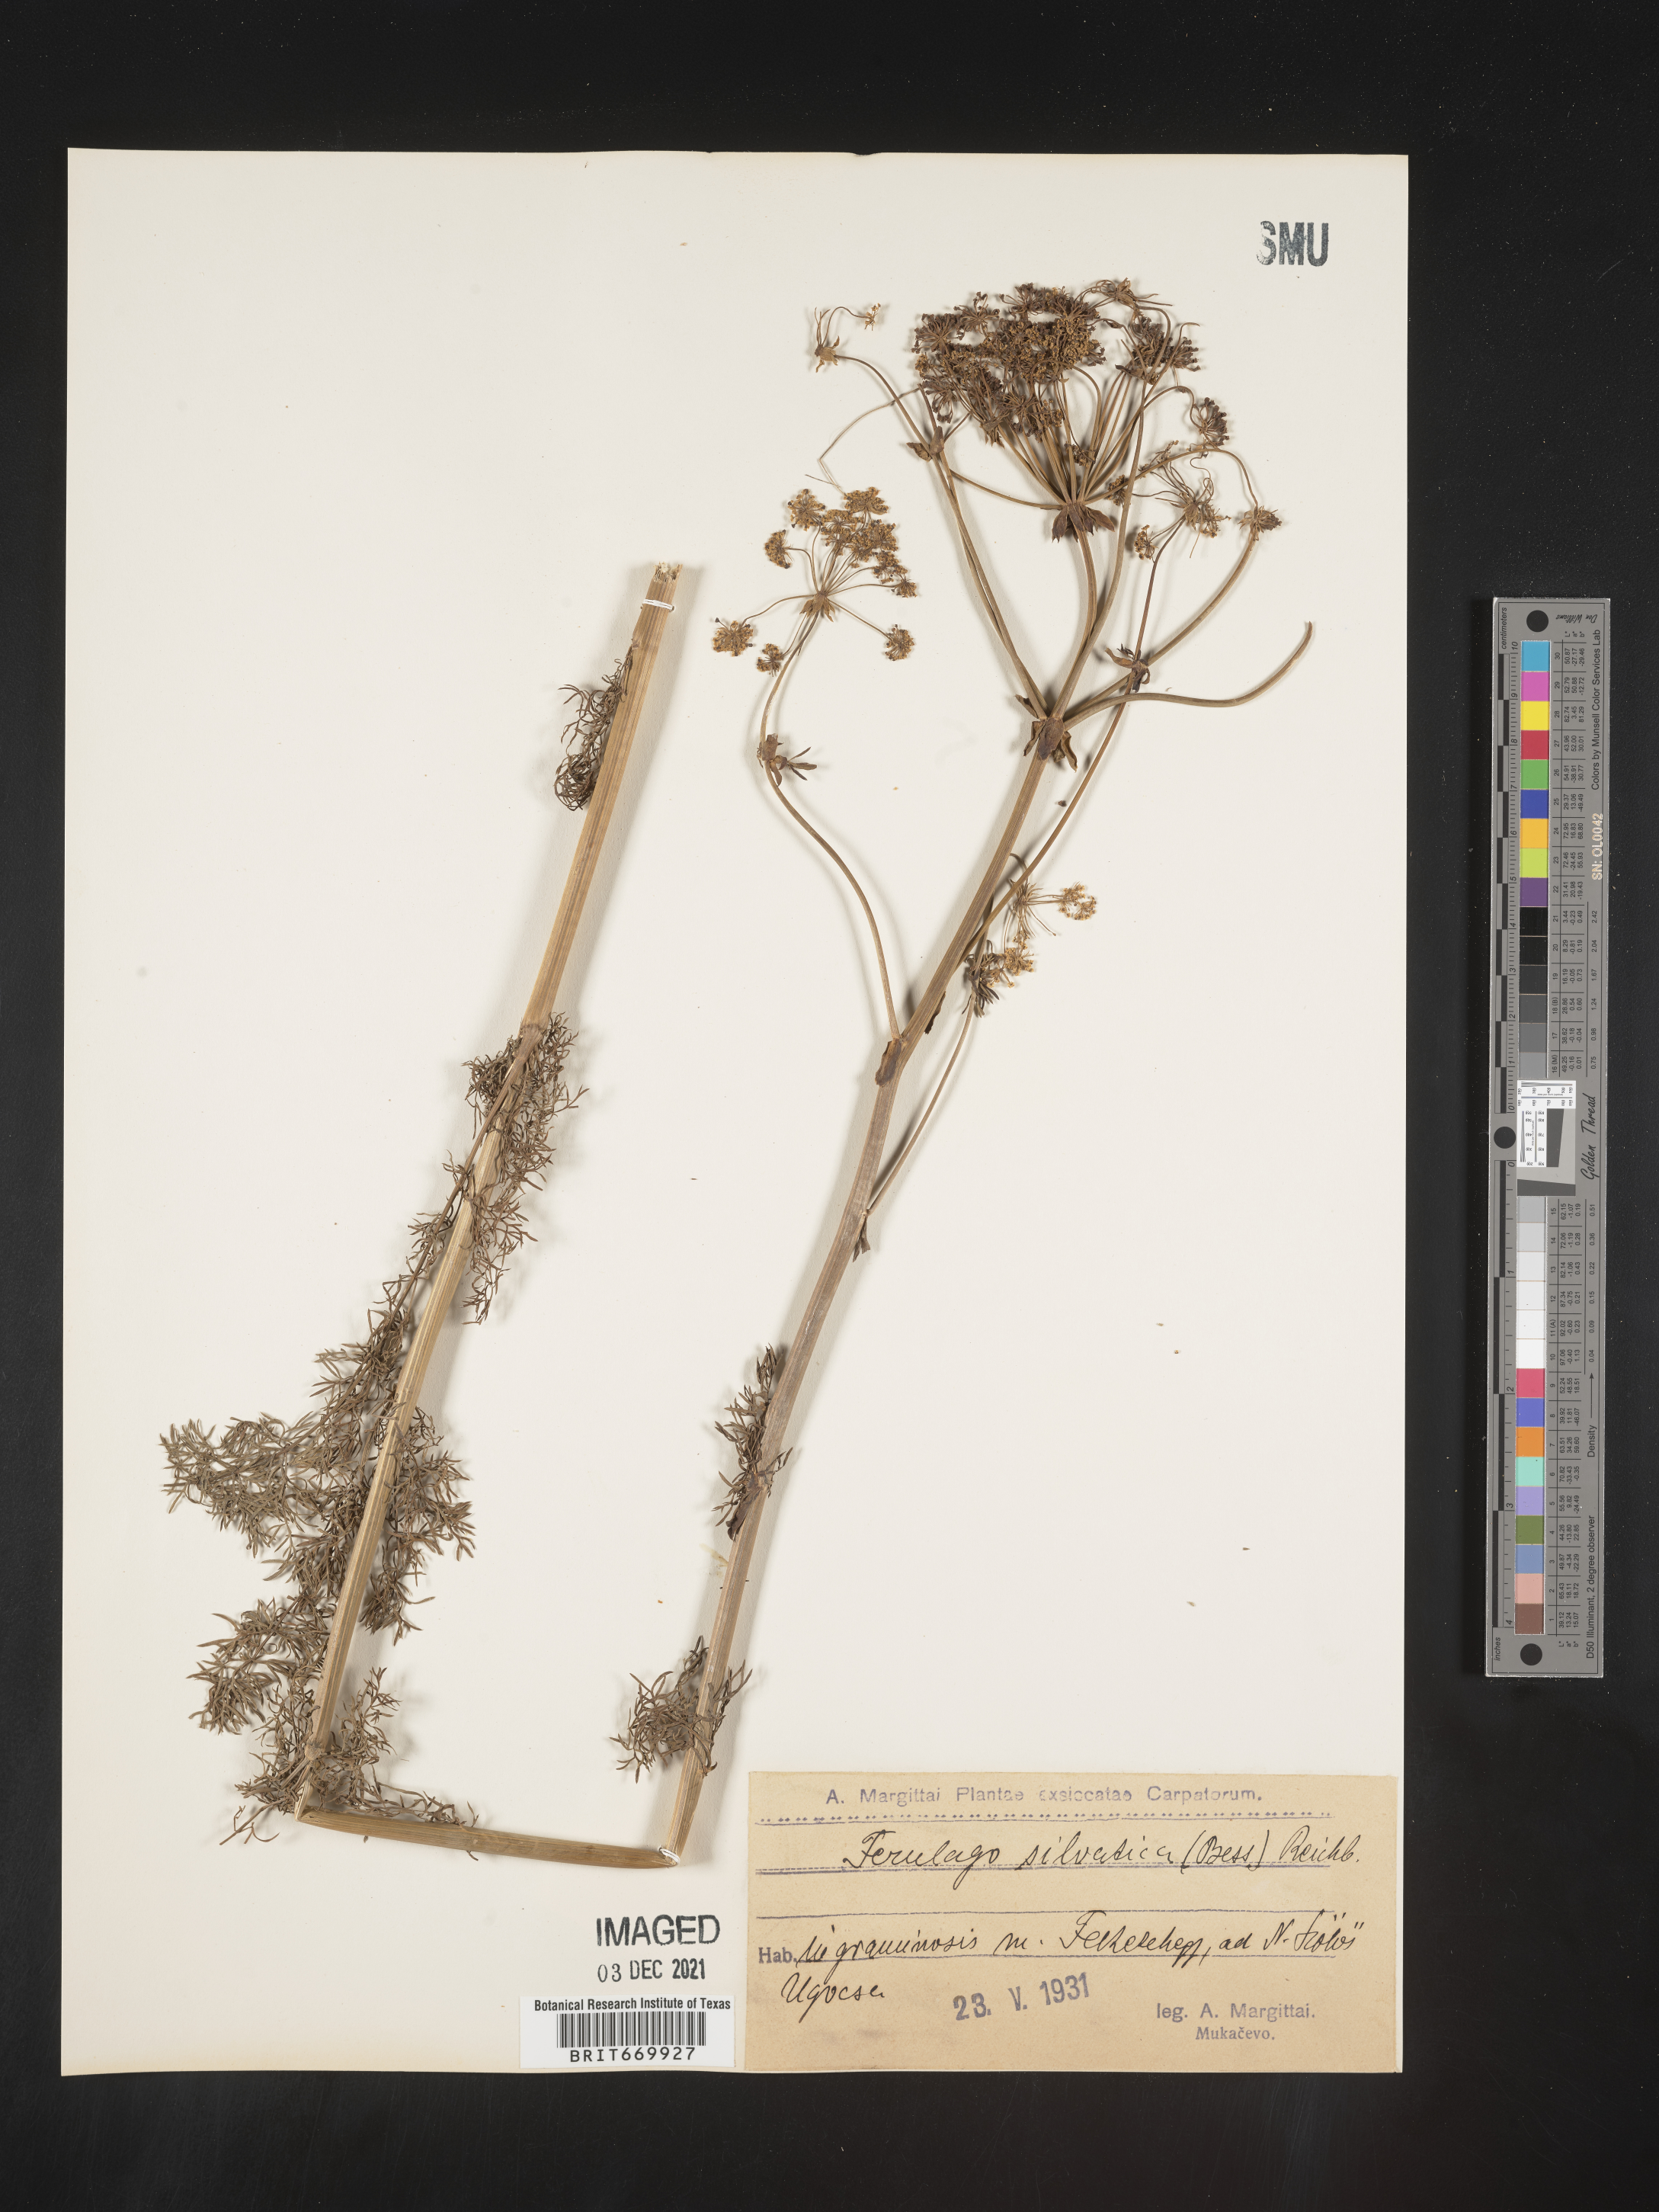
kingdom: Plantae
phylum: Tracheophyta
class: Magnoliopsida
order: Apiales
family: Apiaceae
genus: Ferulago
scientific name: Ferulago
